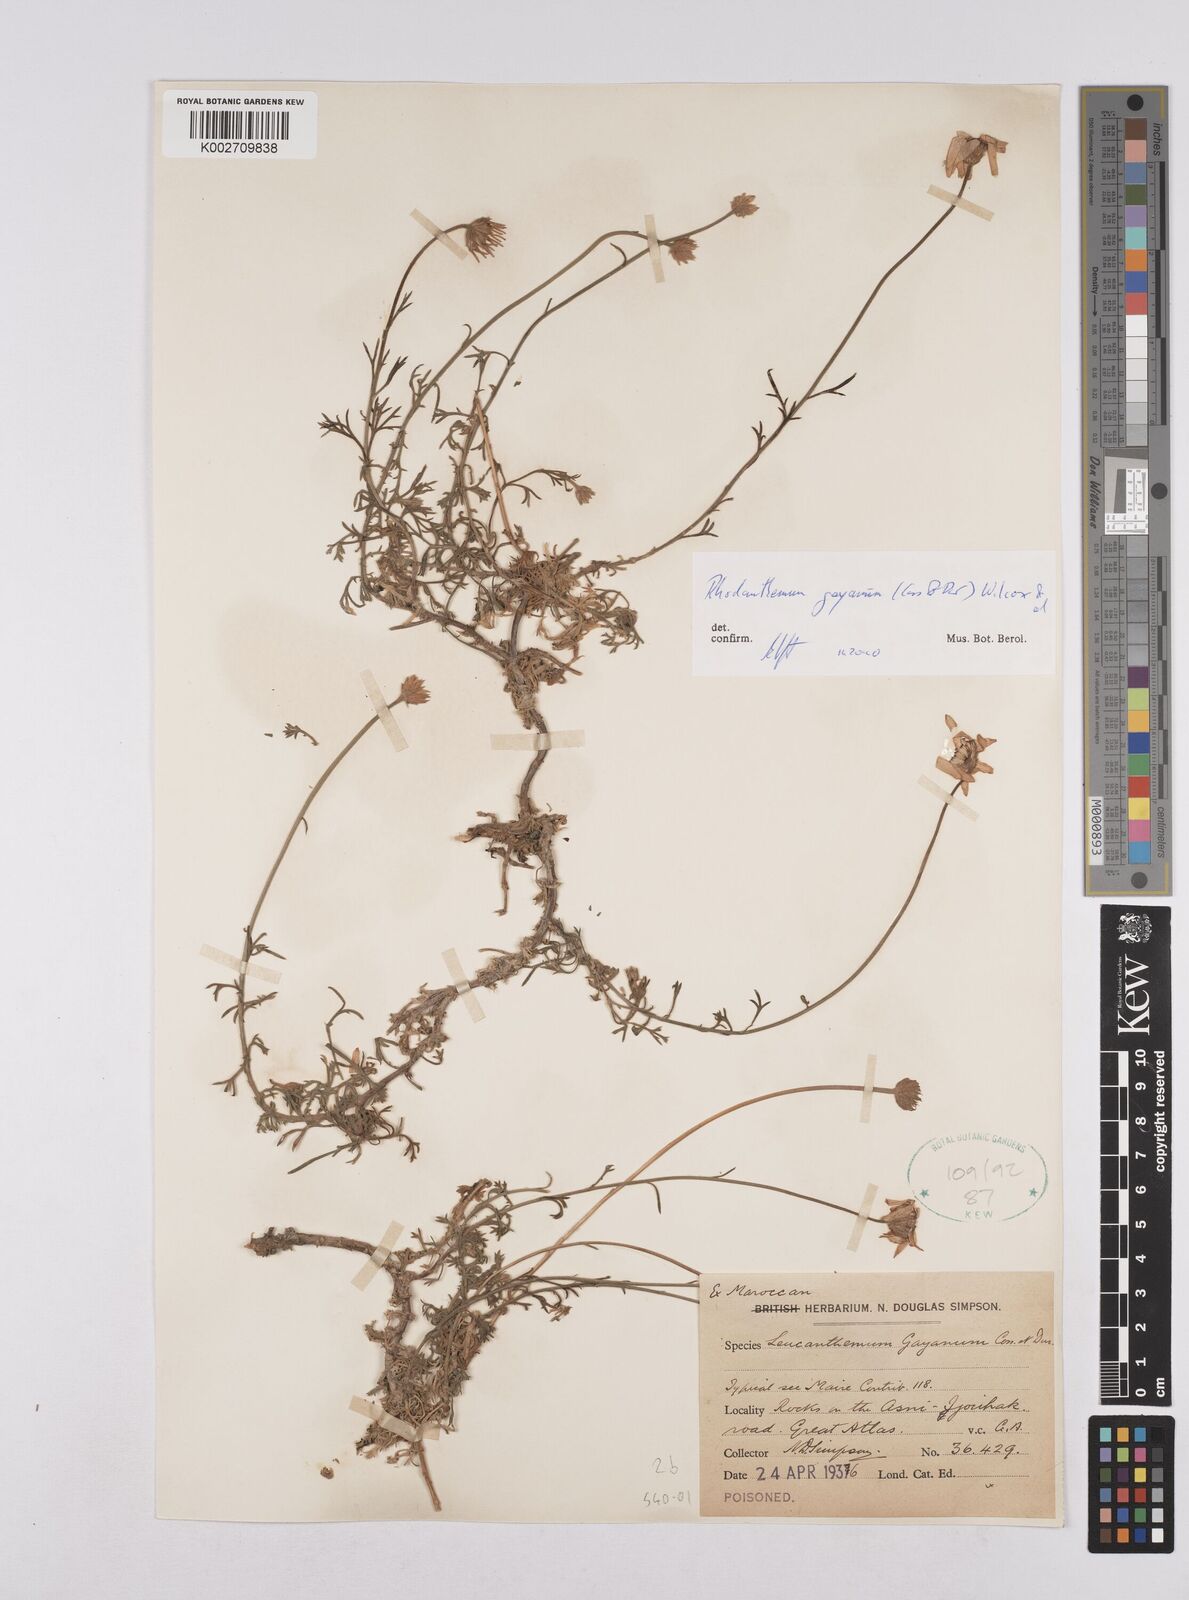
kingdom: Plantae
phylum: Tracheophyta
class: Magnoliopsida
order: Asterales
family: Asteraceae
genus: Rhodanthemum
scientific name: Rhodanthemum gayanum
